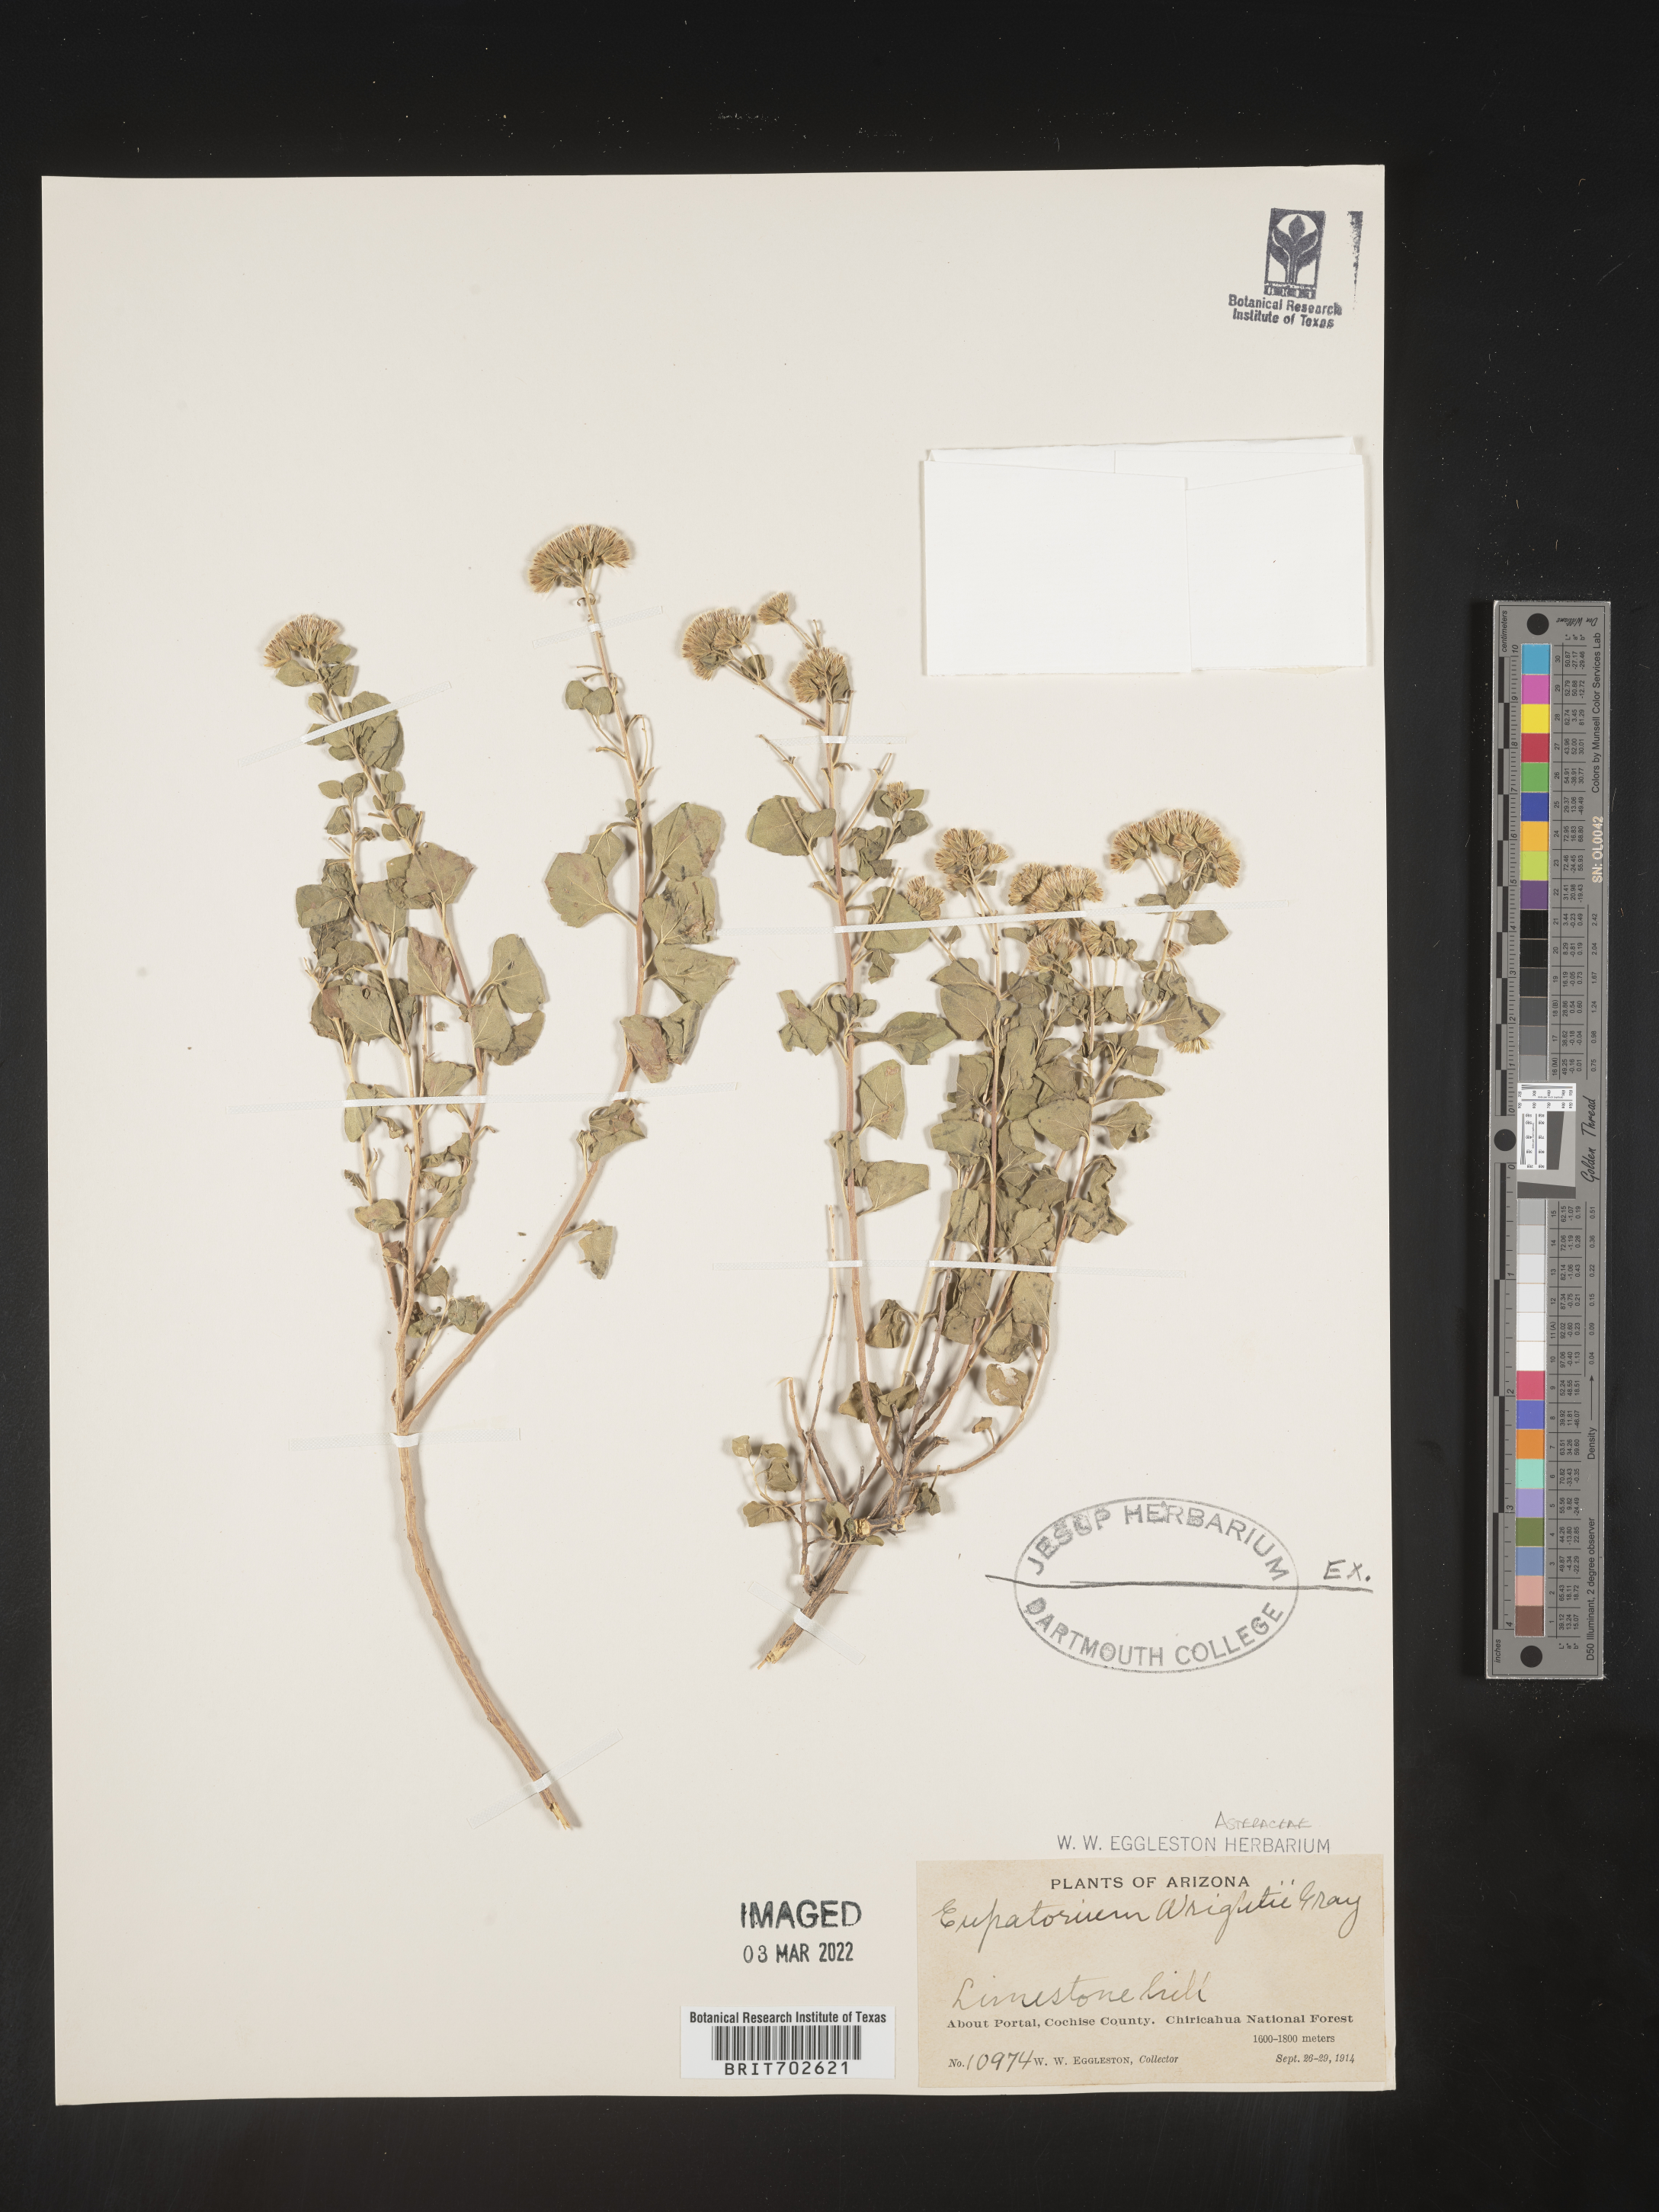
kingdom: Plantae
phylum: Tracheophyta
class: Magnoliopsida
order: Asterales
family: Asteraceae
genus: Ageratina
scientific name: Ageratina wrightii
